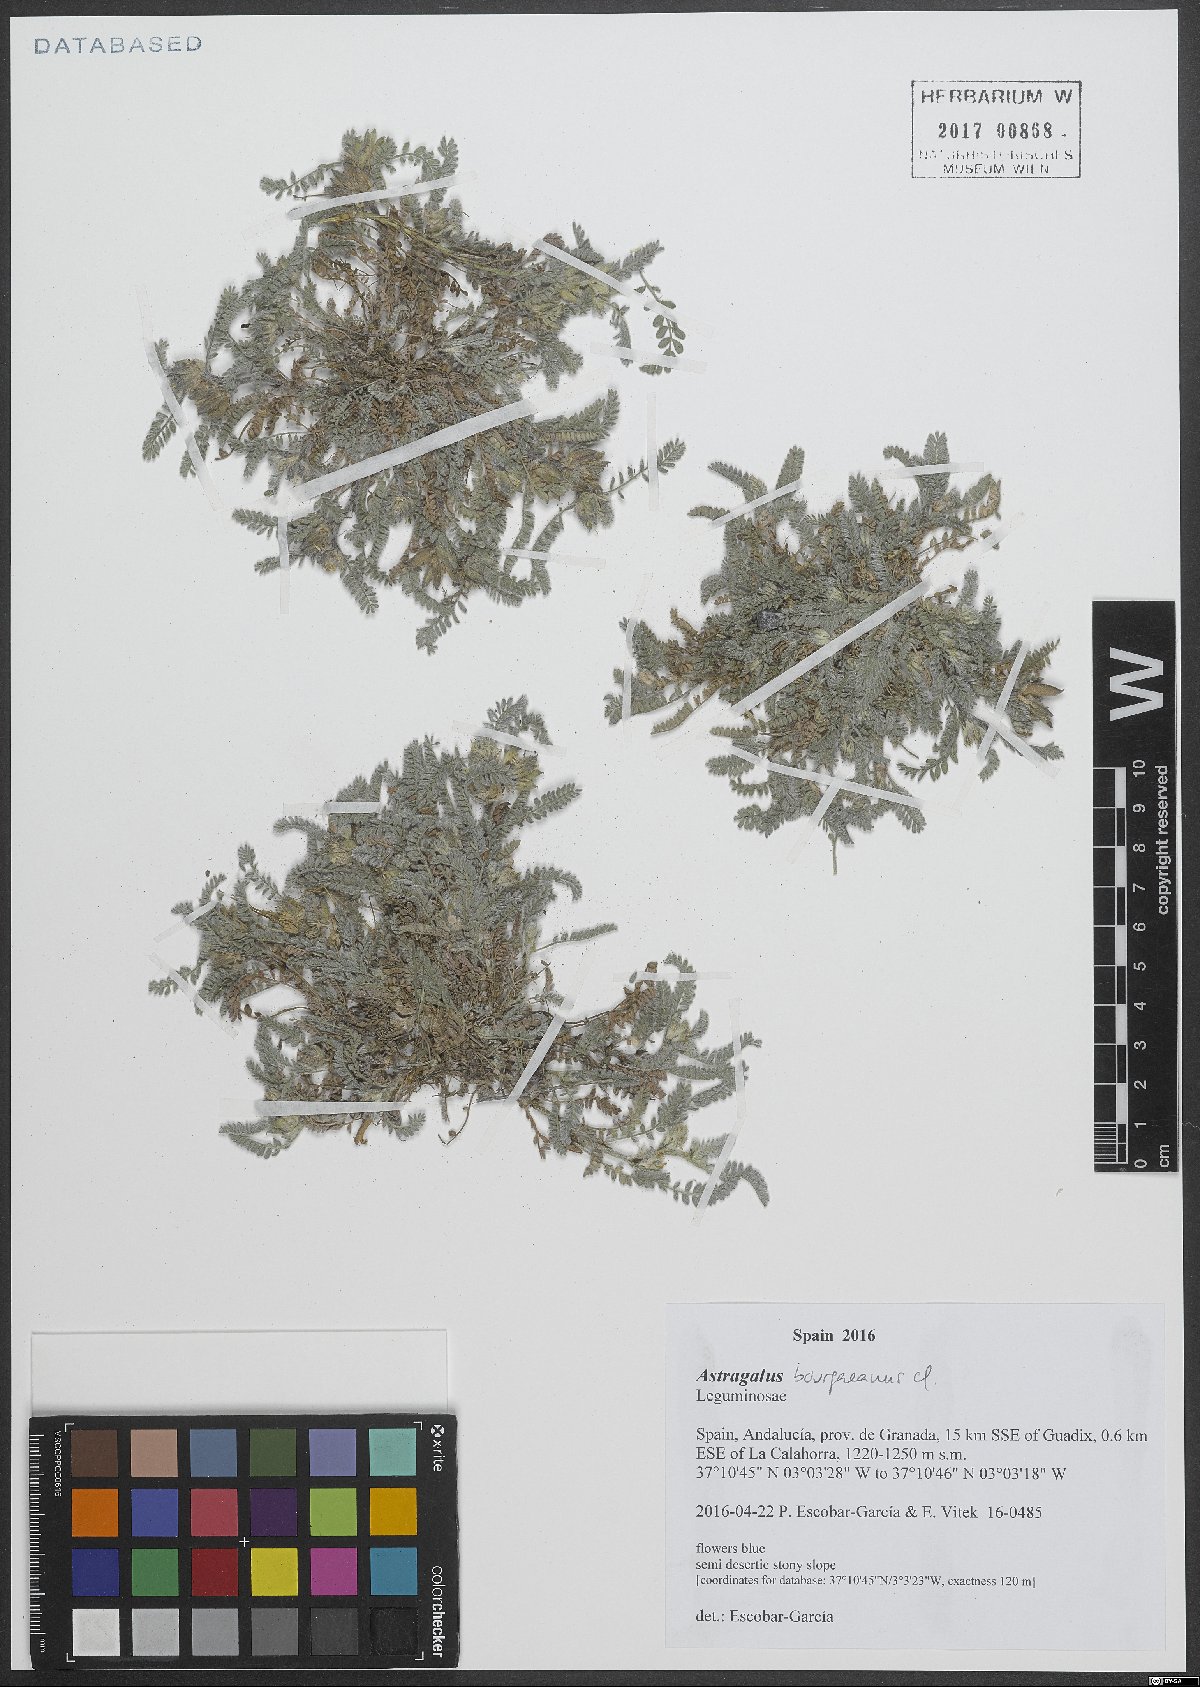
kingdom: Plantae
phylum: Tracheophyta
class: Magnoliopsida
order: Fabales
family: Fabaceae
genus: Astragalus
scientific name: Astragalus bourgaeanus
